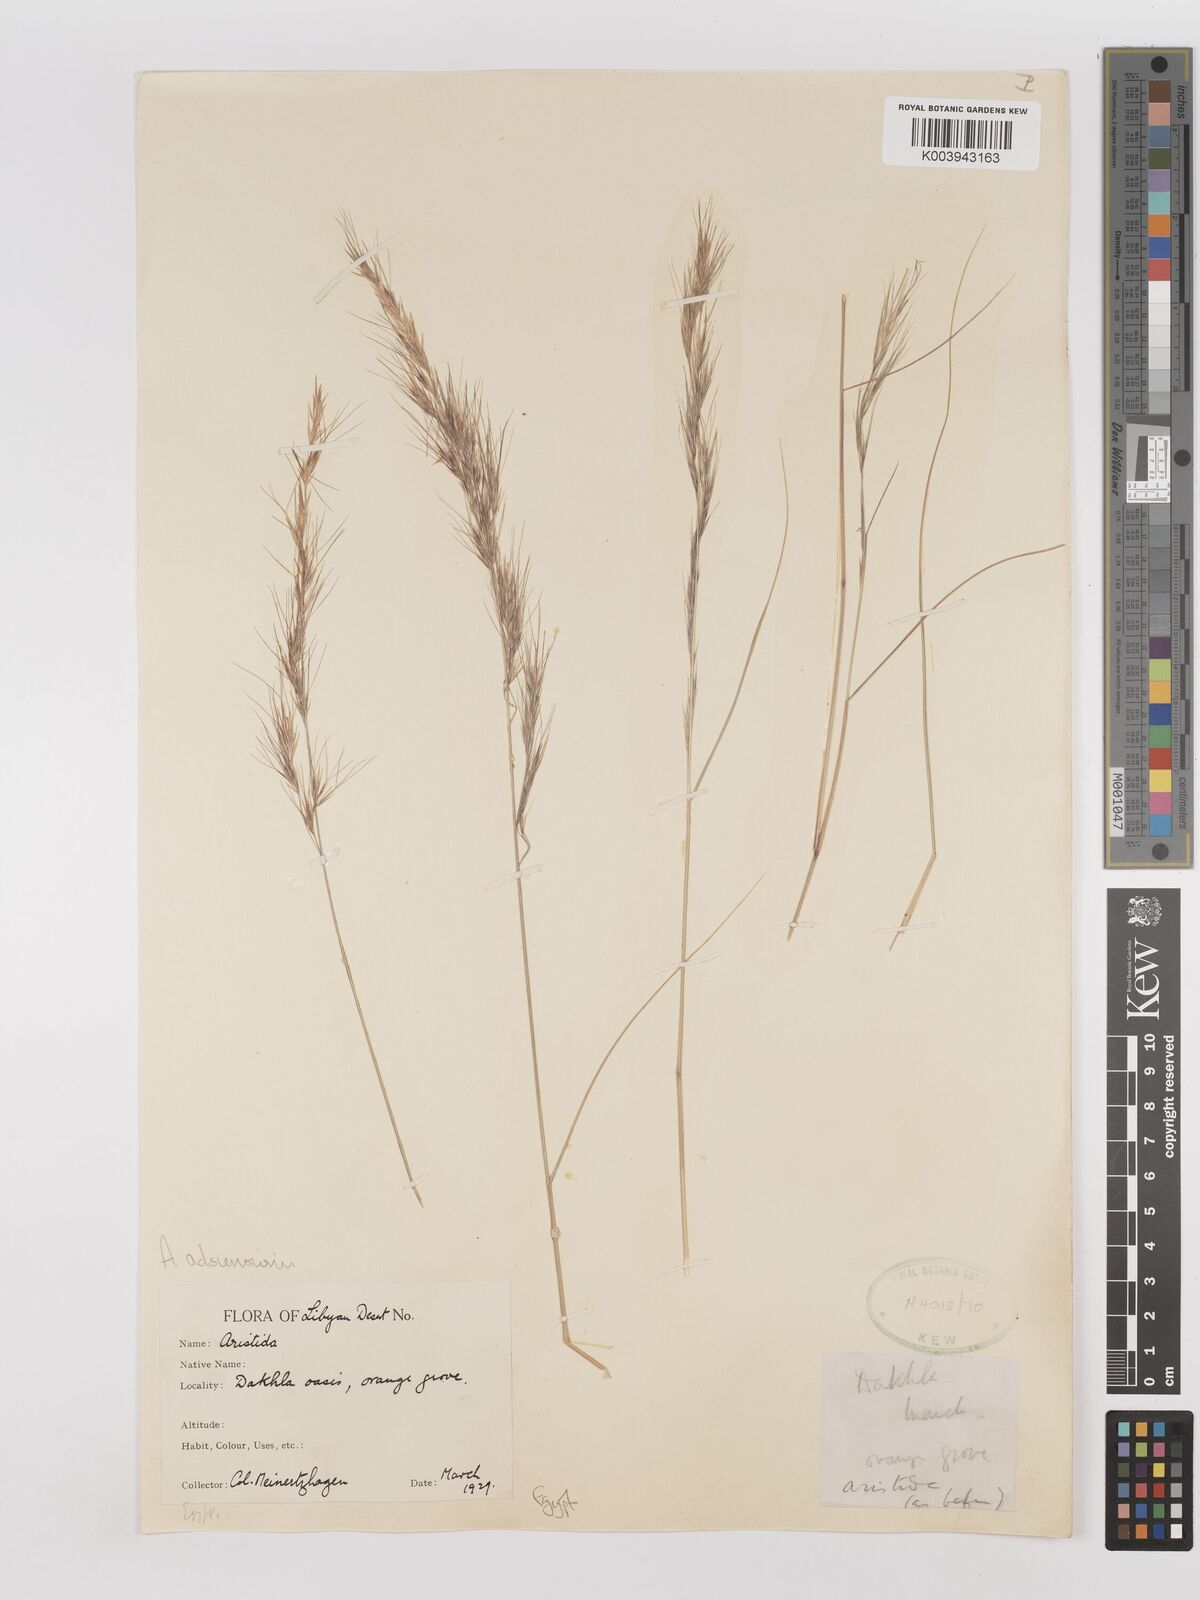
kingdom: Plantae
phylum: Tracheophyta
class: Liliopsida
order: Poales
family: Poaceae
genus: Aristida
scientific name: Aristida adscensionis
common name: Sixweeks threeawn
